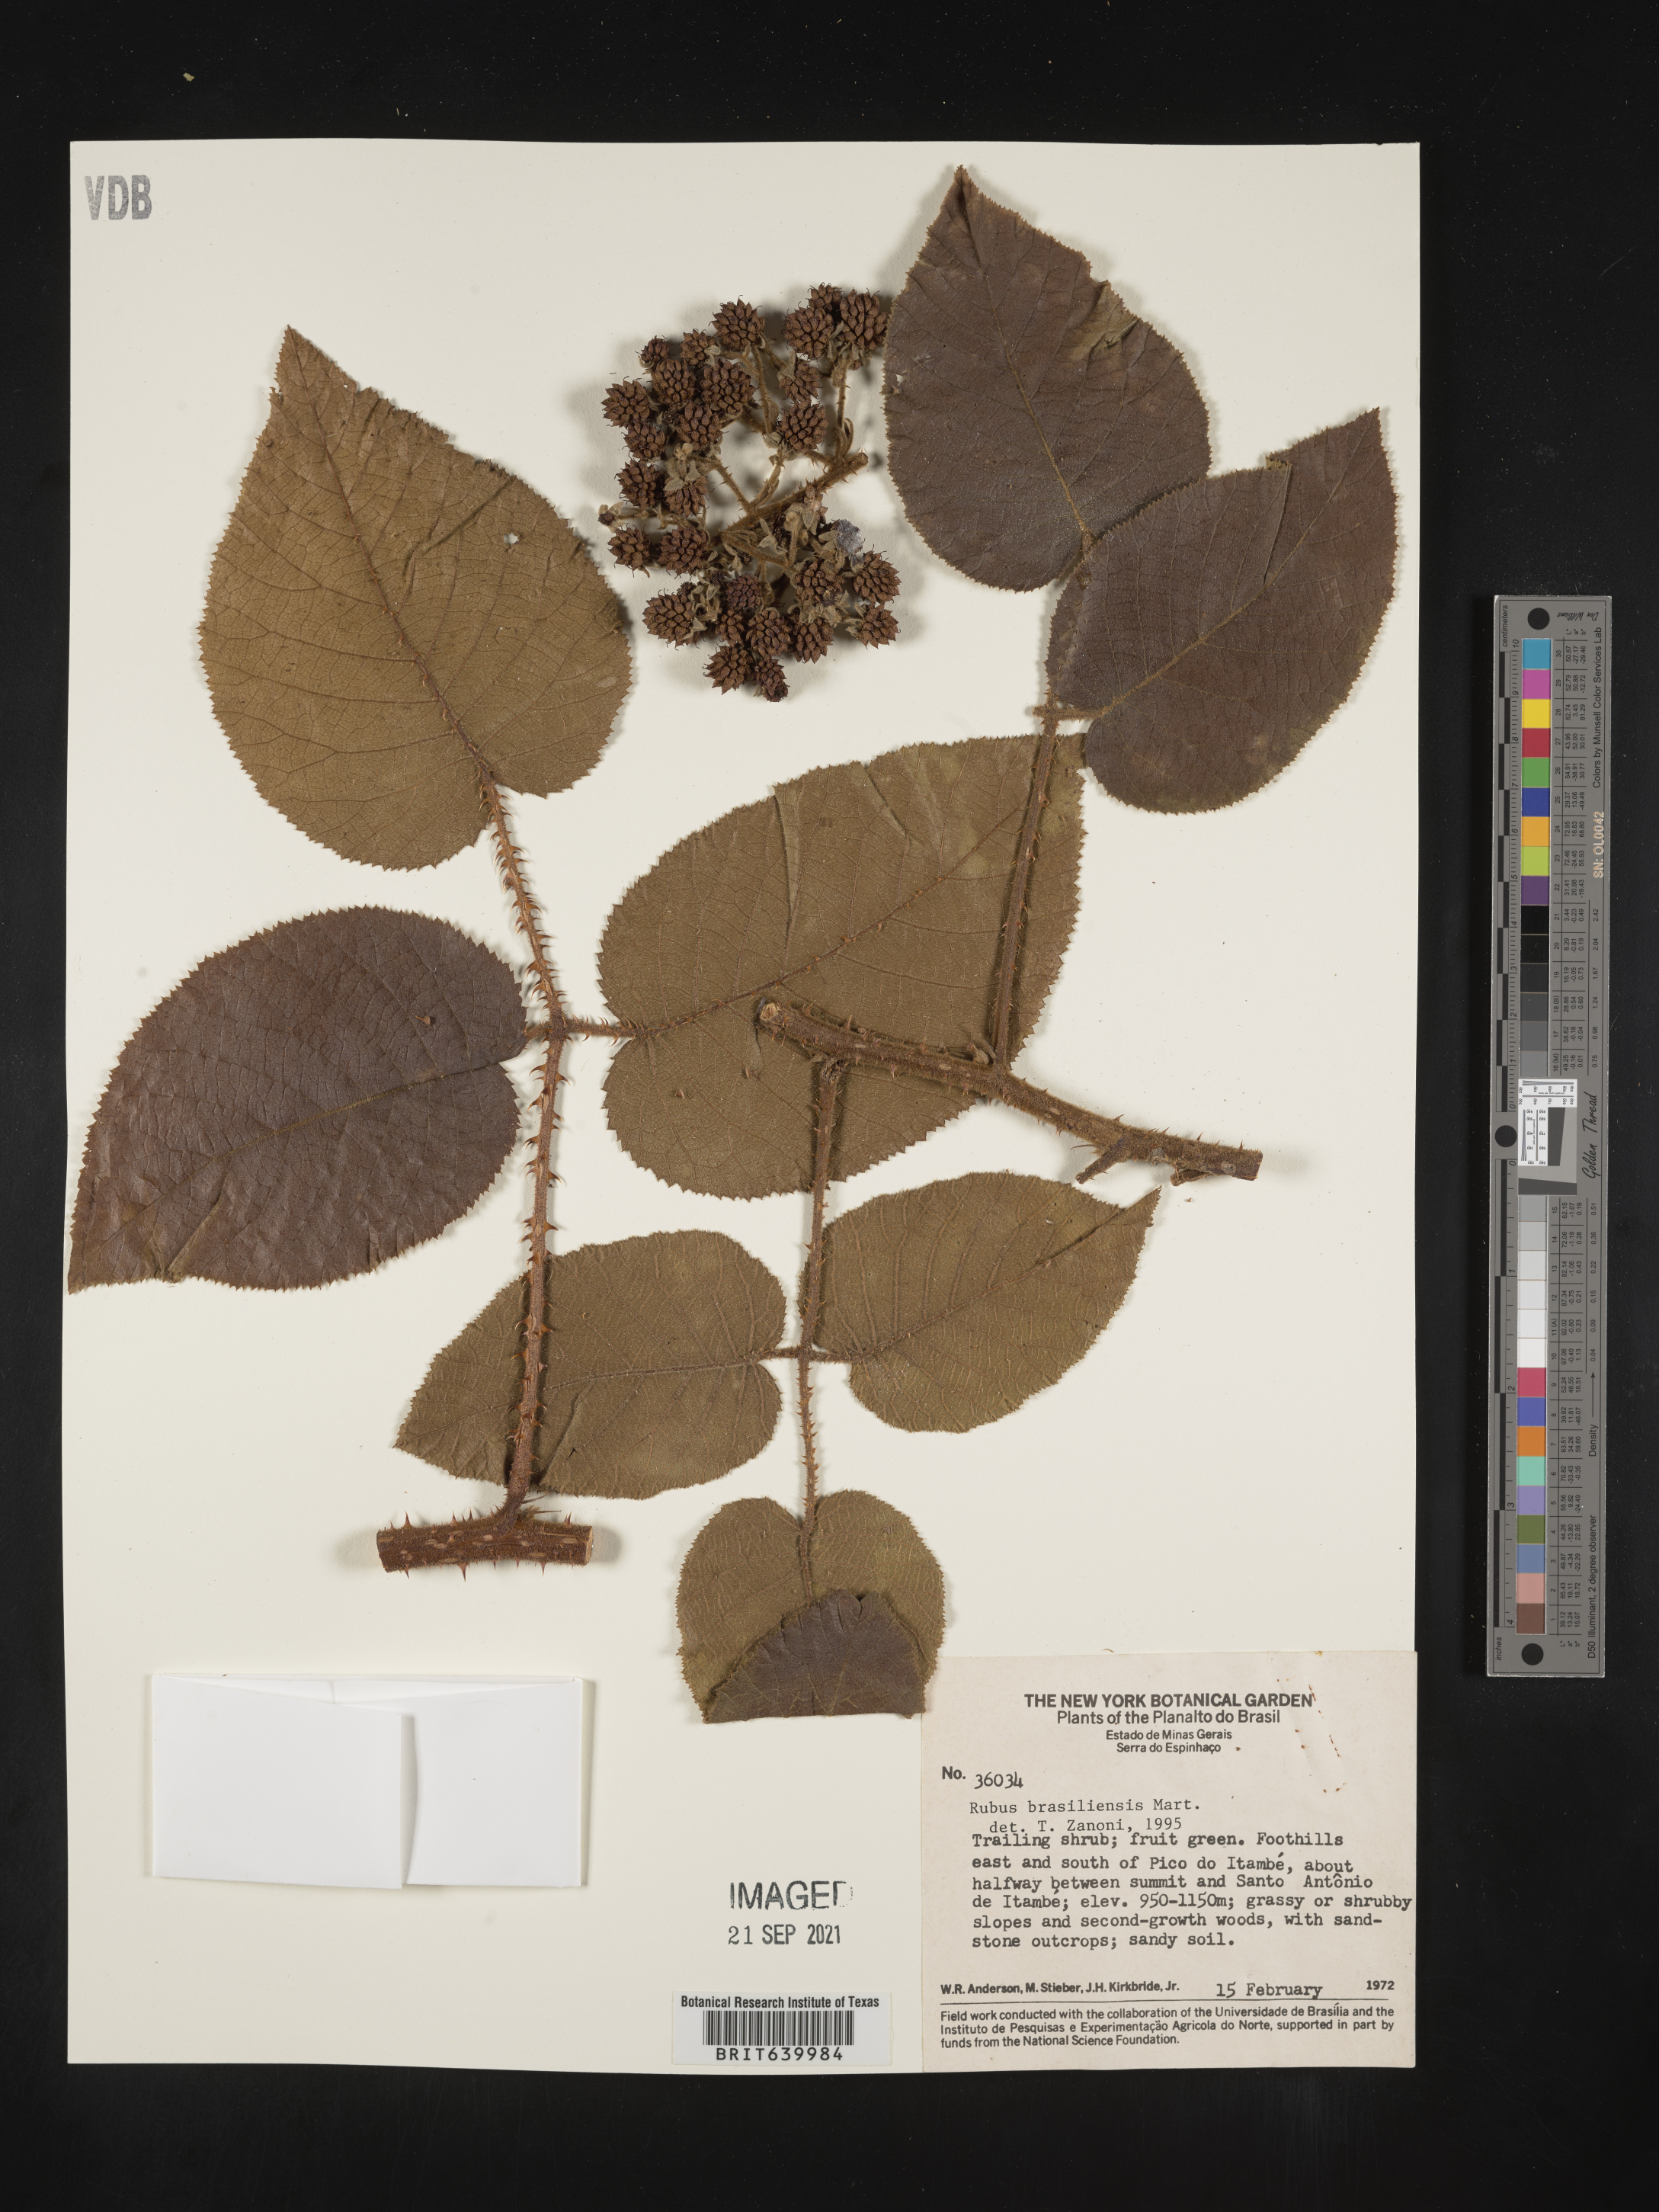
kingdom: Plantae
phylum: Tracheophyta
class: Magnoliopsida
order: Rosales
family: Rosaceae
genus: Rubus
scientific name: Rubus
